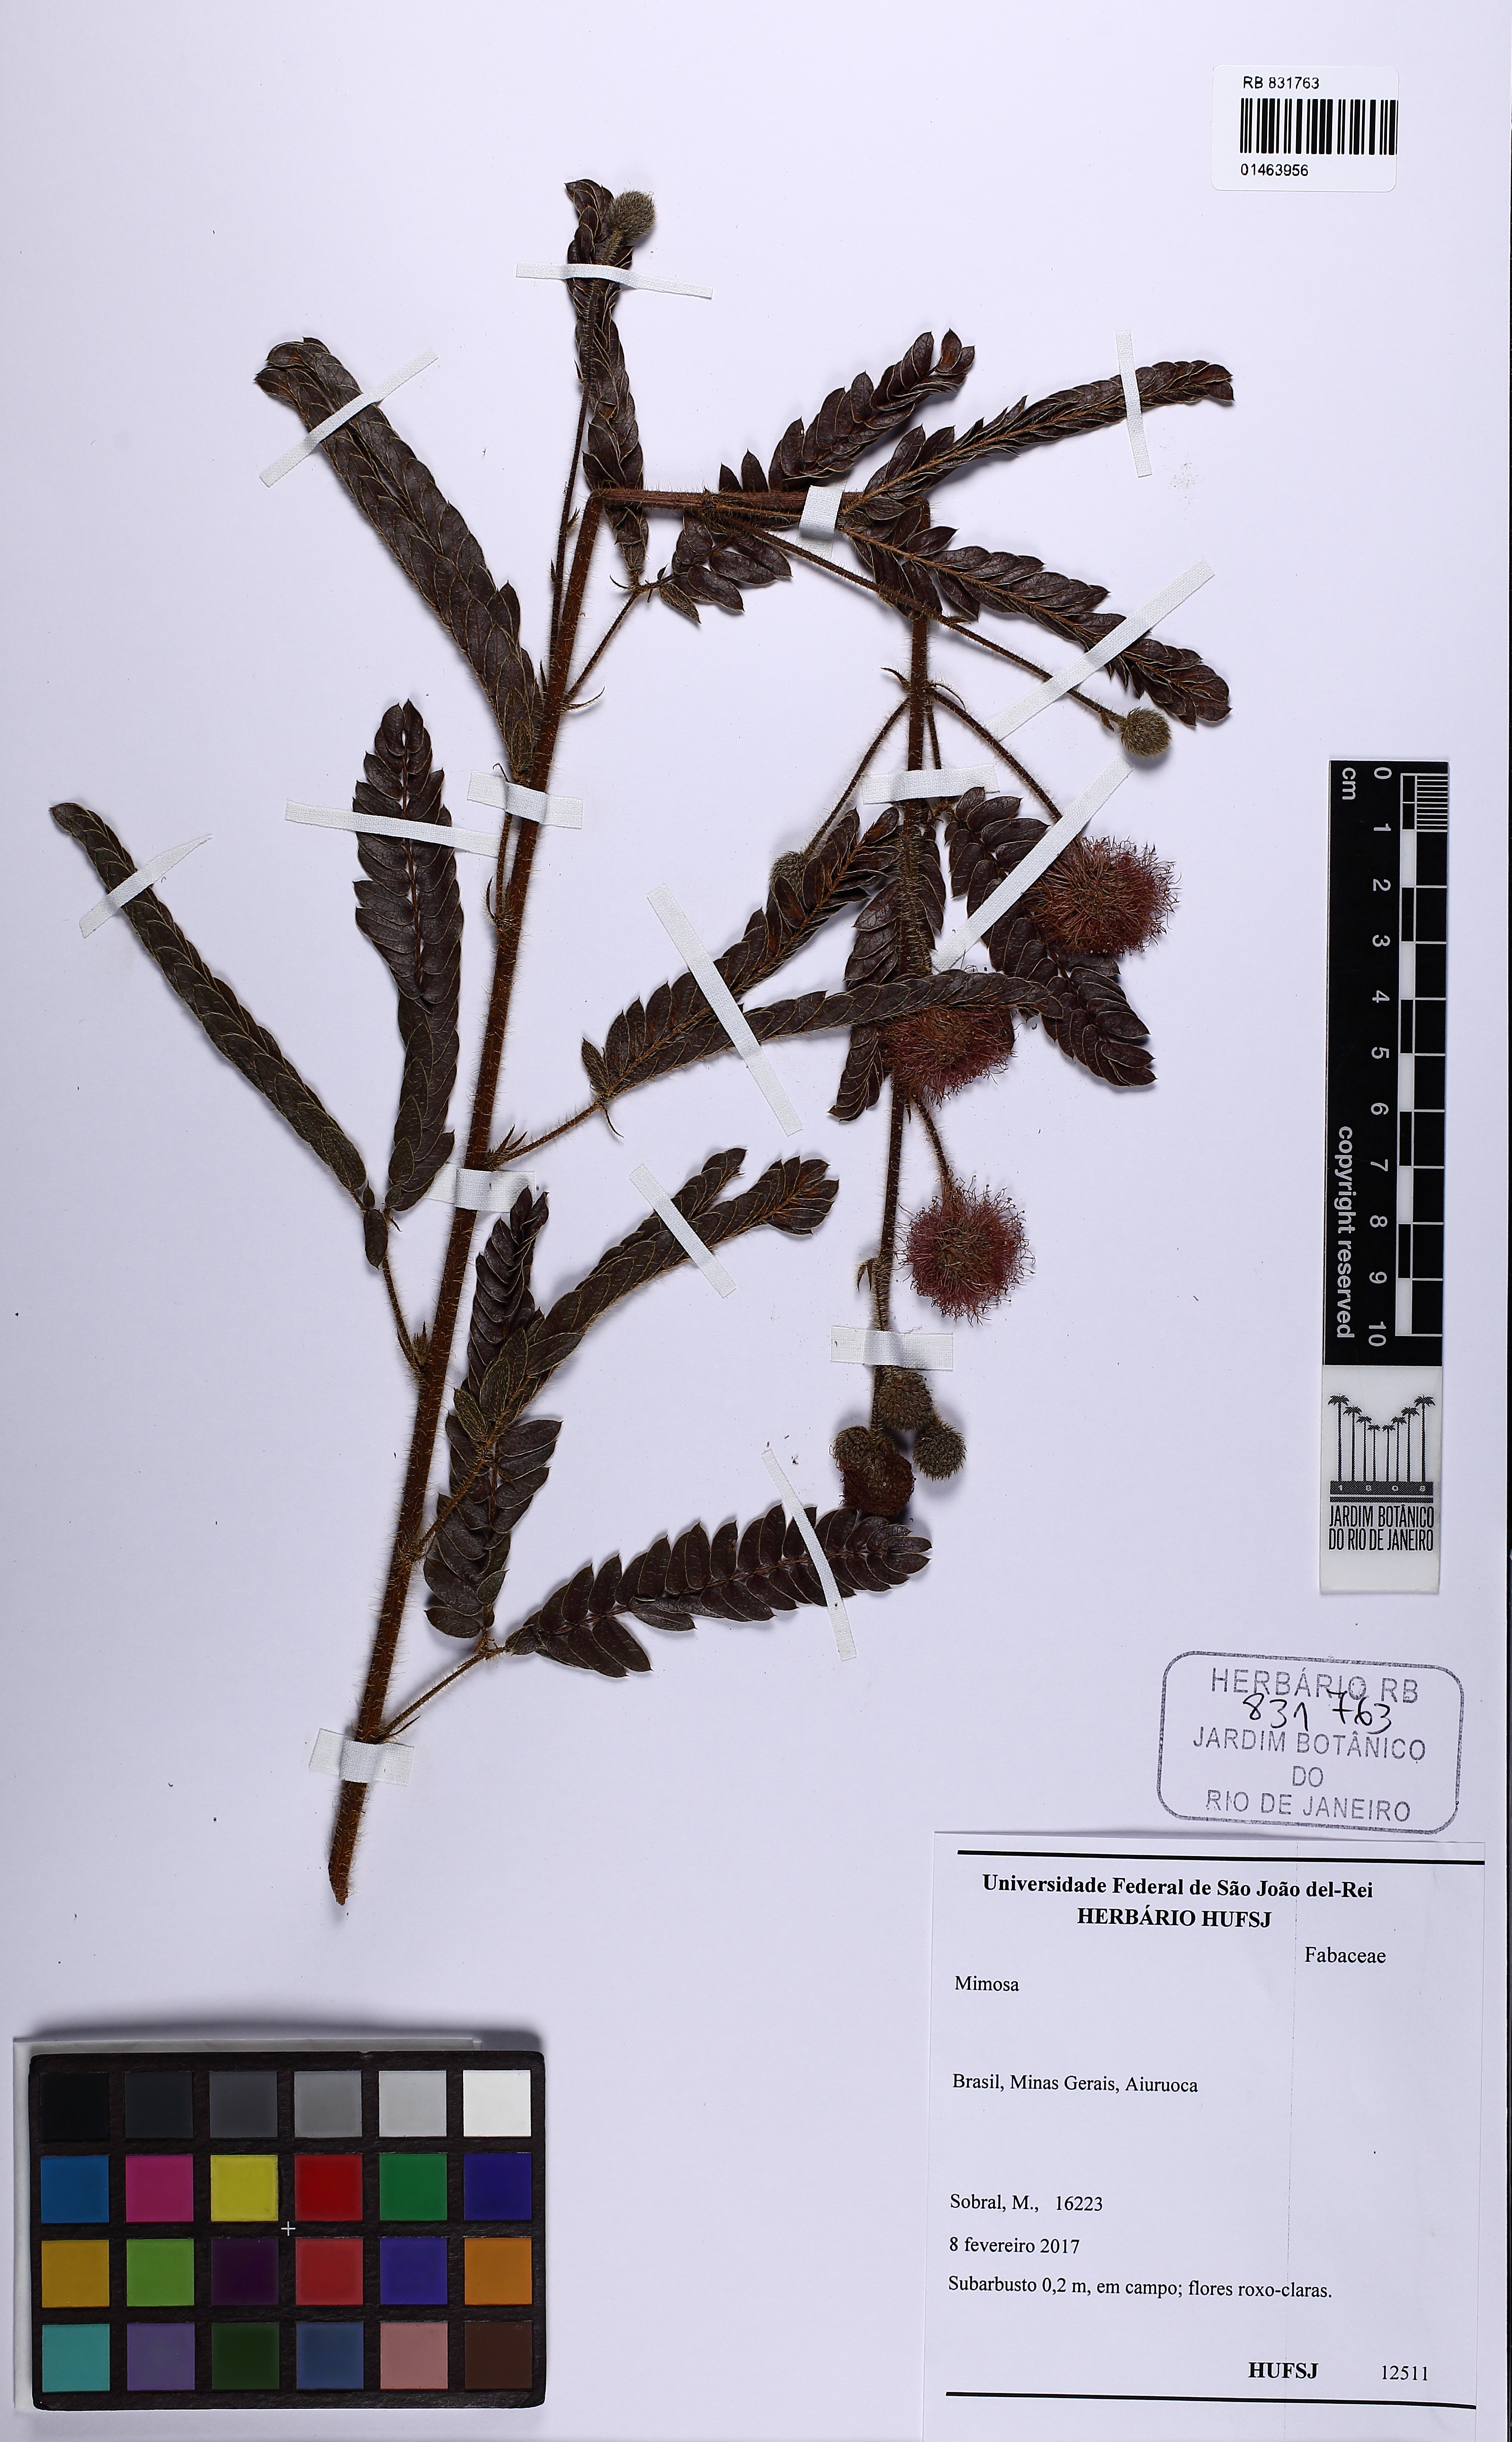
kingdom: Plantae
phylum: Tracheophyta
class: Magnoliopsida
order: Fabales
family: Fabaceae
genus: Mimosa
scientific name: Mimosa
